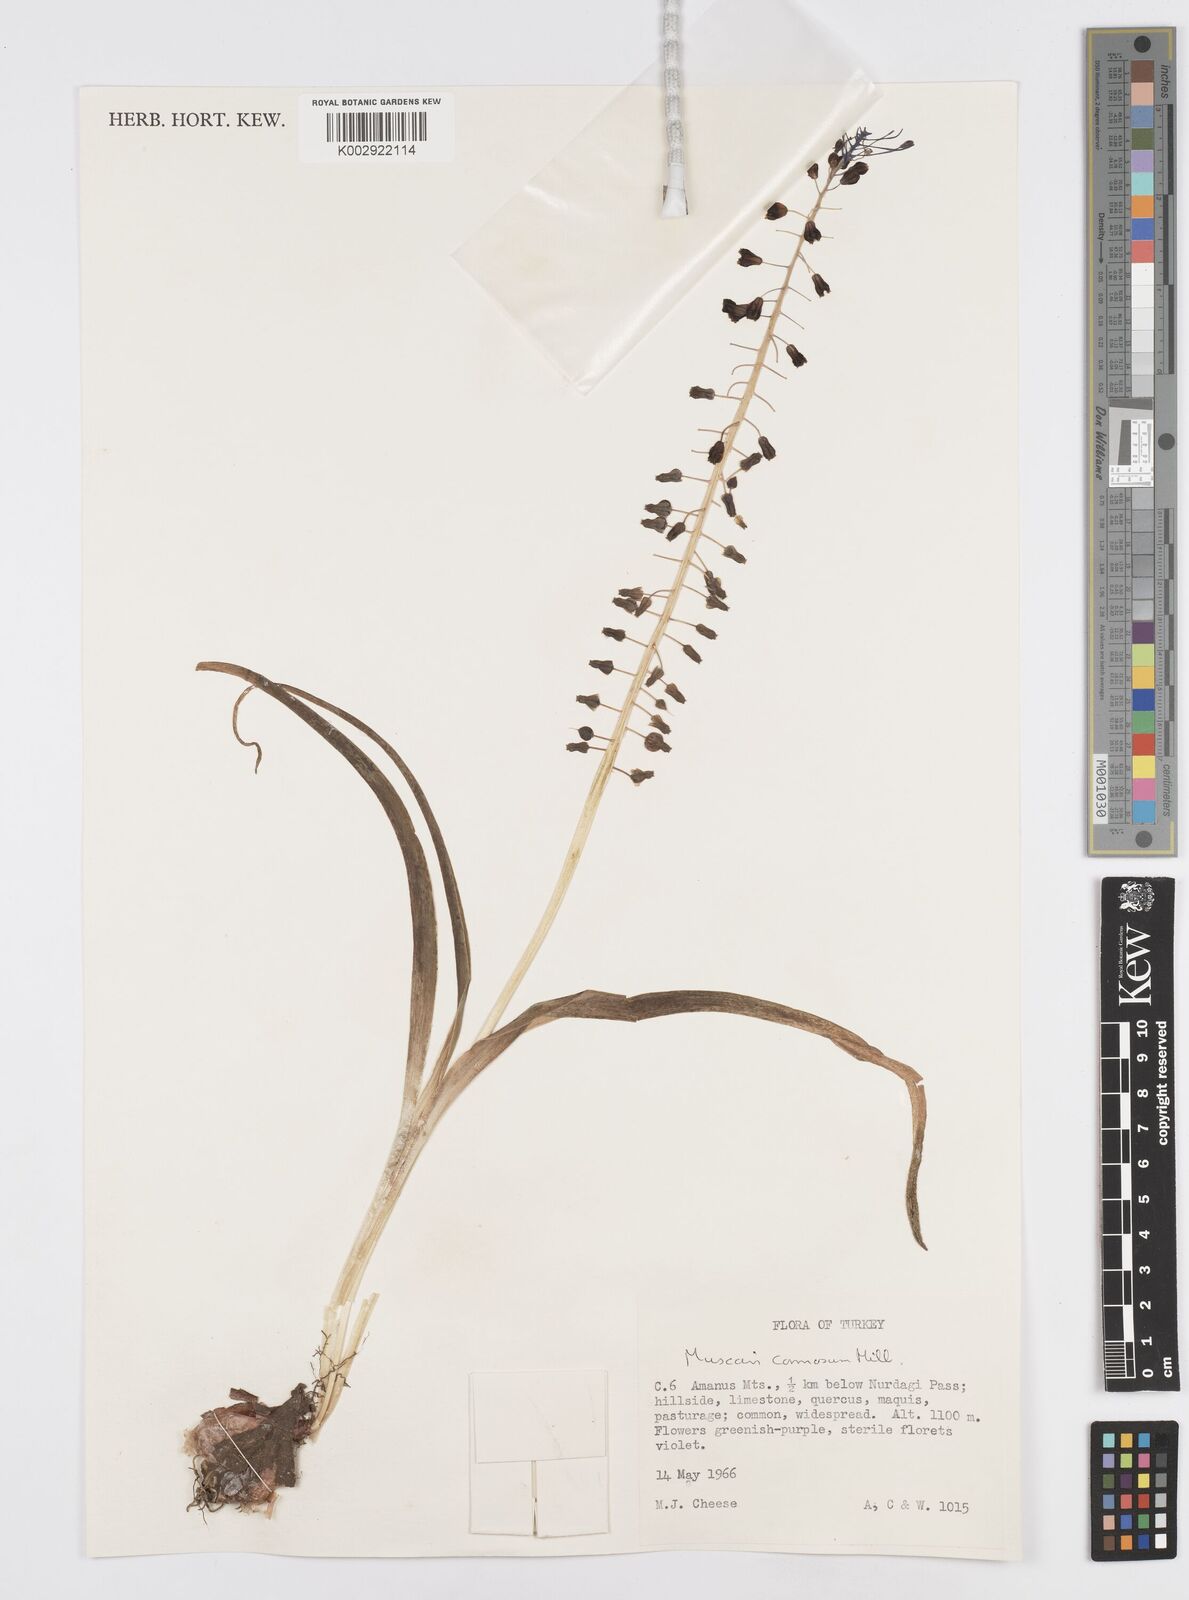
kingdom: Plantae
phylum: Tracheophyta
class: Liliopsida
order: Asparagales
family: Asparagaceae
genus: Muscari
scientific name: Muscari comosum
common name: Tassel hyacinth
